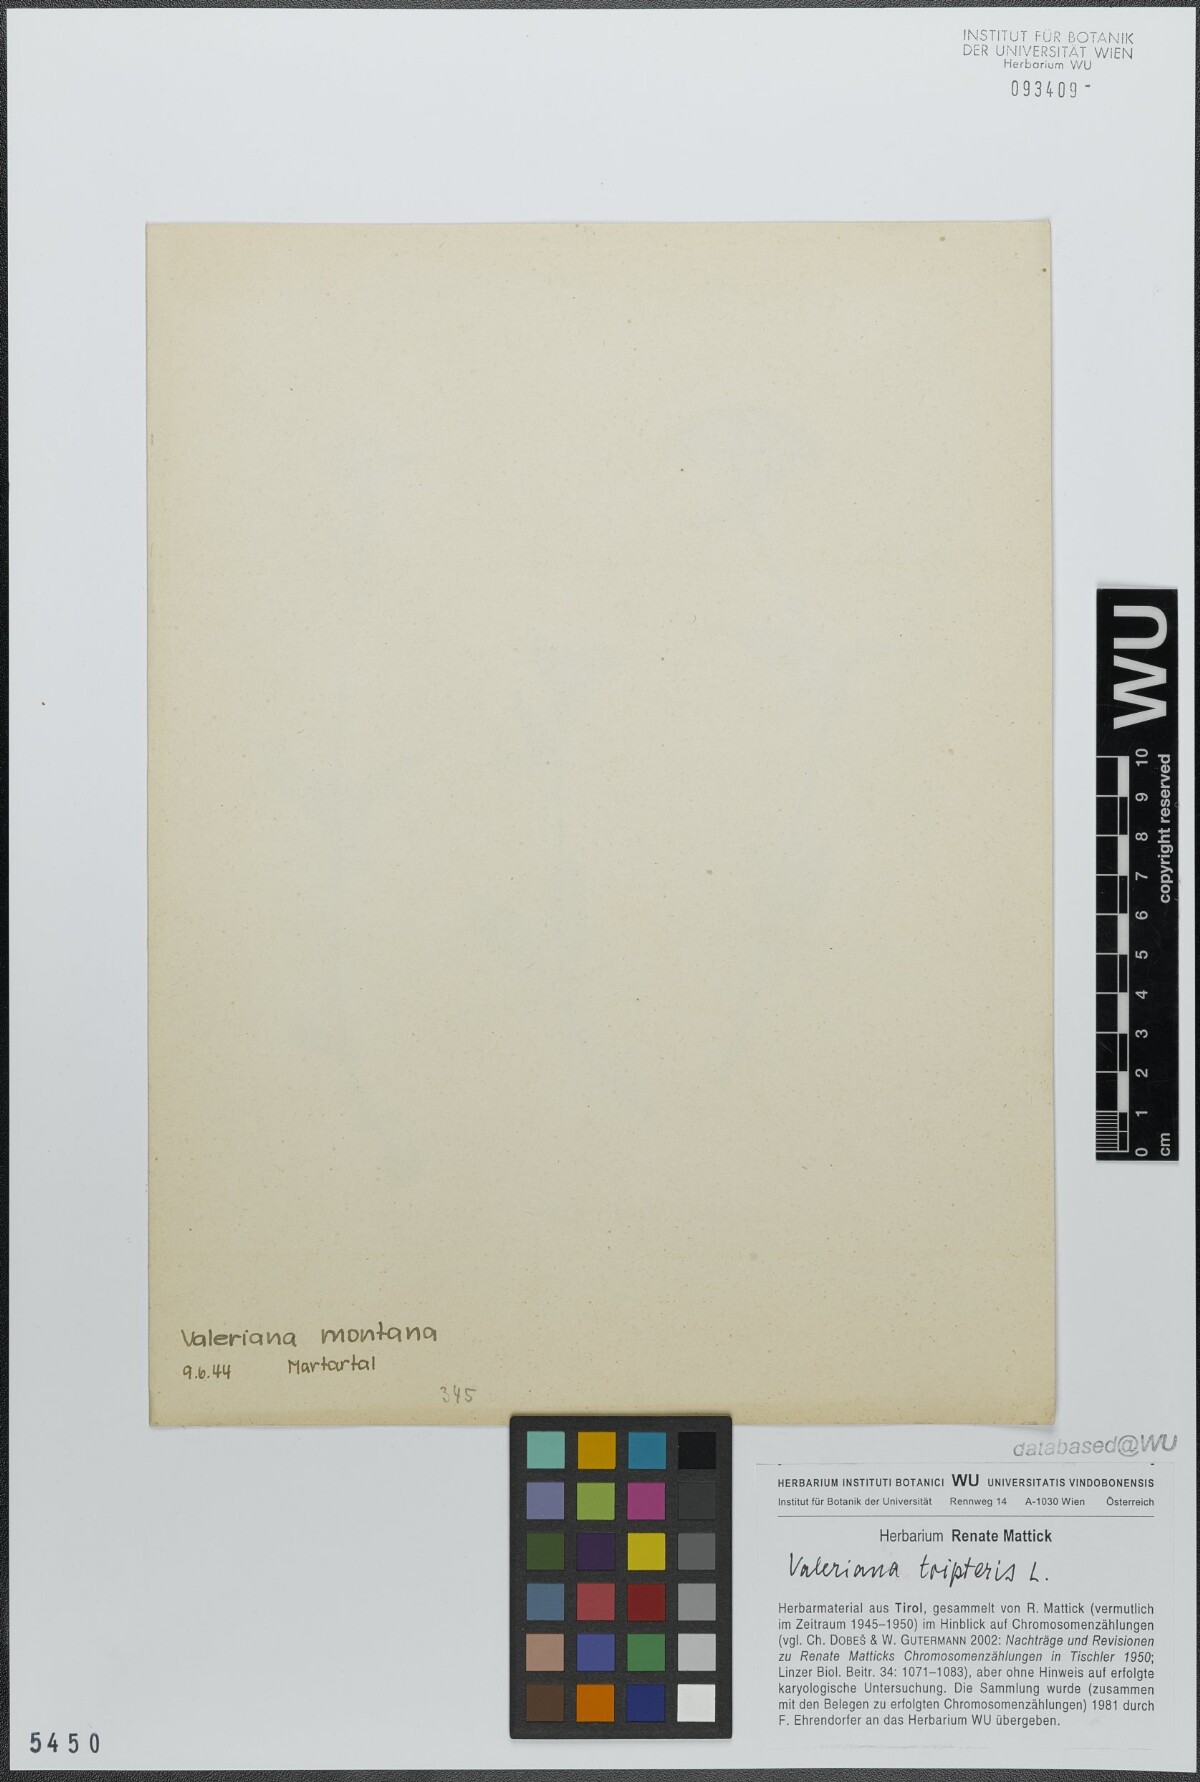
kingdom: Plantae
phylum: Tracheophyta
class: Magnoliopsida
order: Dipsacales
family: Caprifoliaceae
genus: Valeriana
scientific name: Valeriana tripteris
